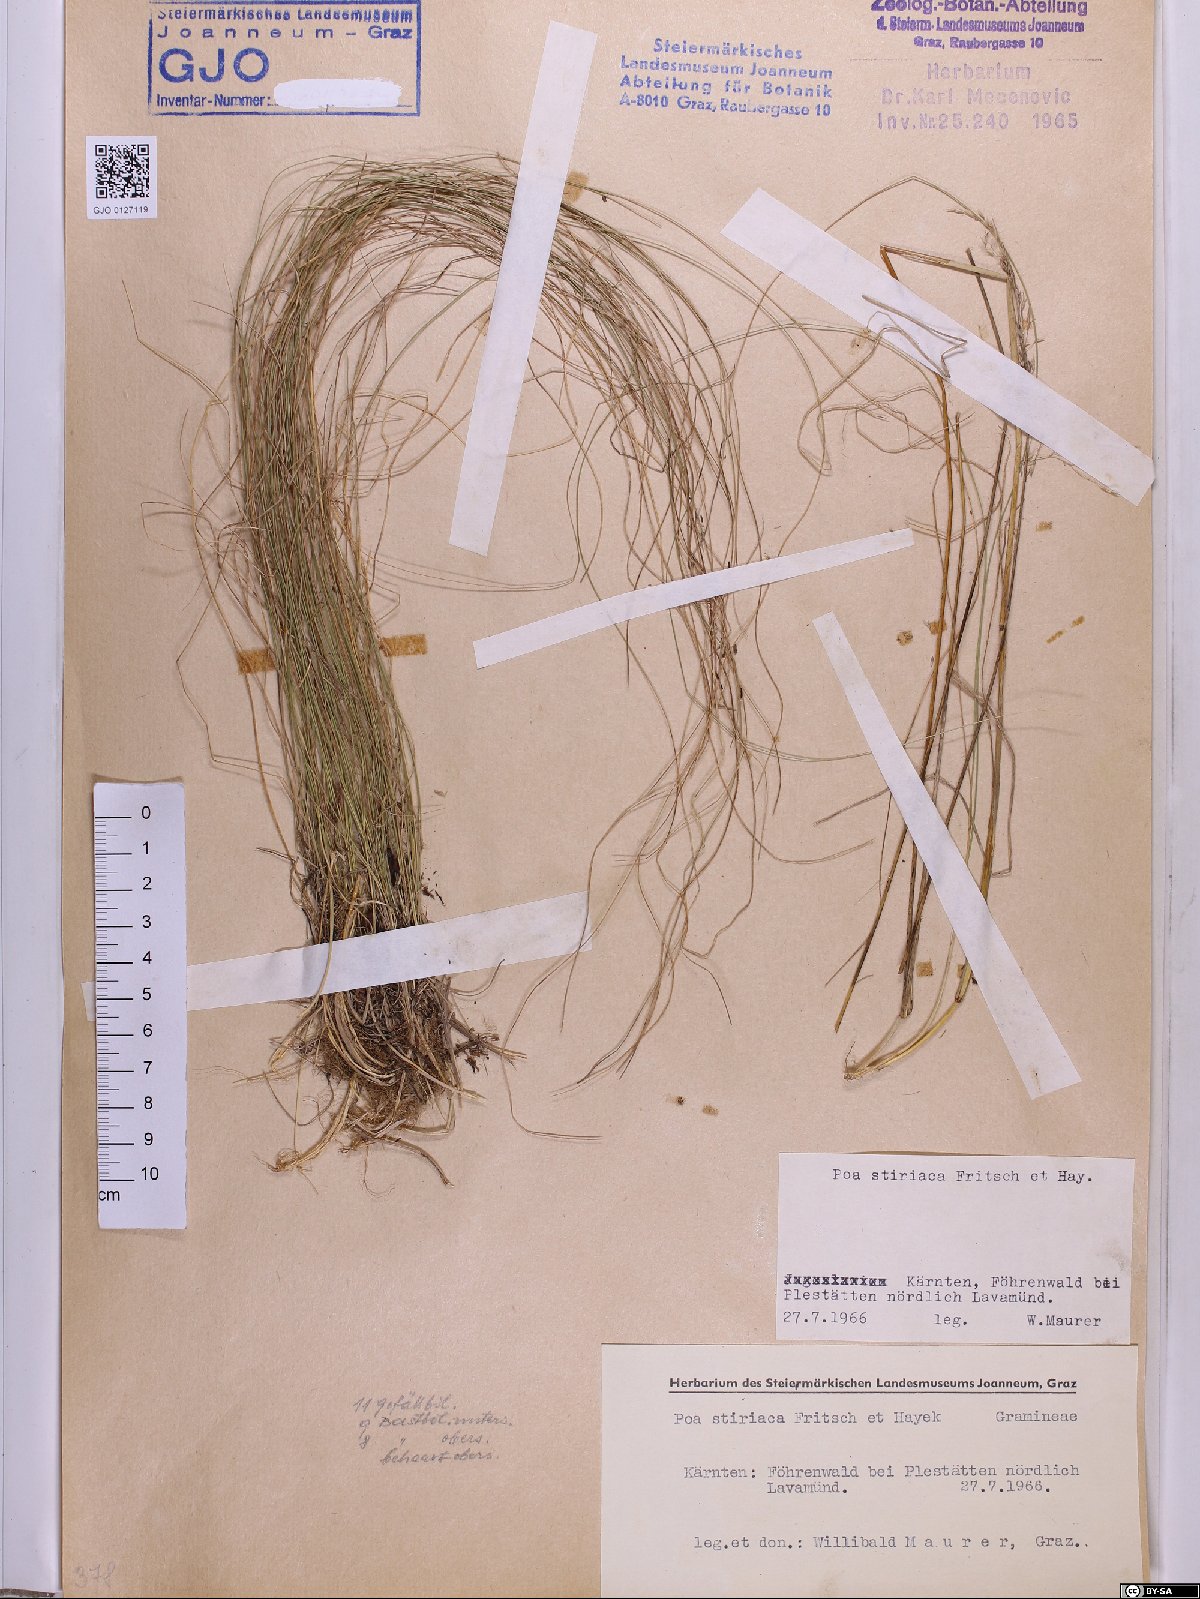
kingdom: Plantae
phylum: Tracheophyta
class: Liliopsida
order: Poales
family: Poaceae
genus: Poa
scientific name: Poa stiriaca
